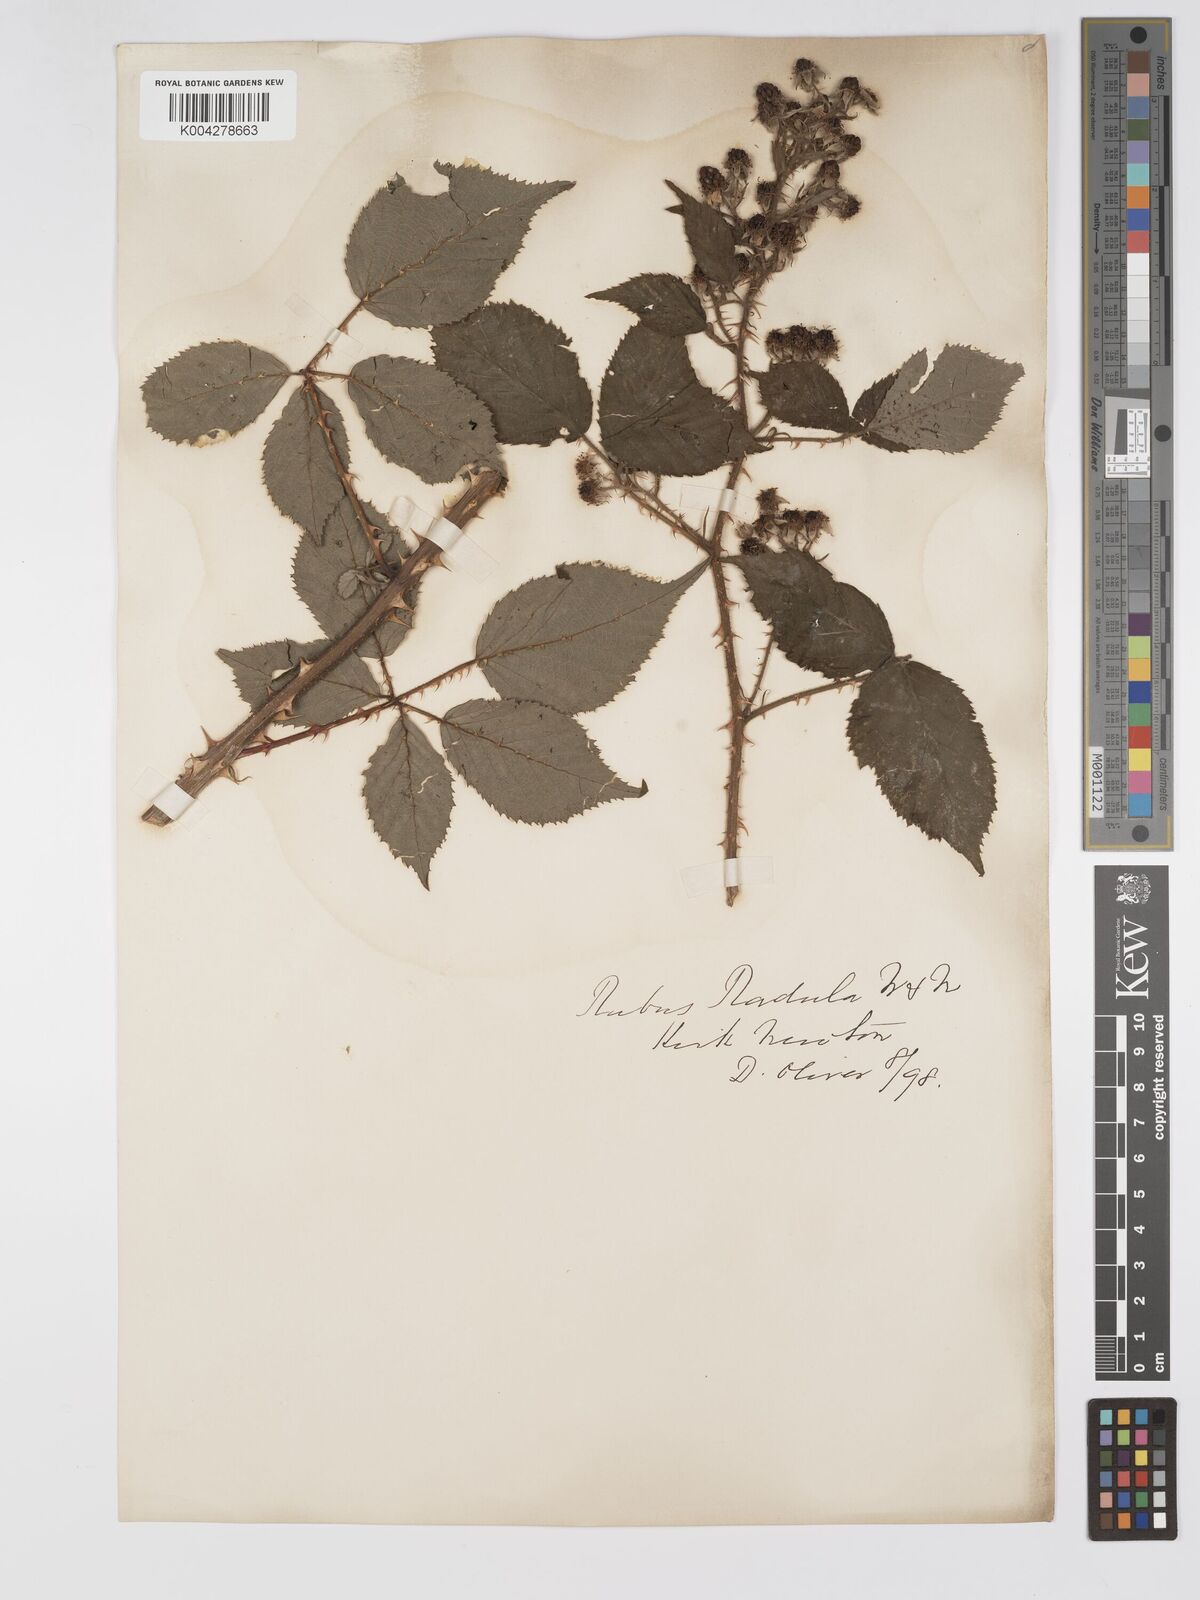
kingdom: Plantae
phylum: Tracheophyta
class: Magnoliopsida
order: Rosales
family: Rosaceae
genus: Rubus
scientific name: Rubus radula
